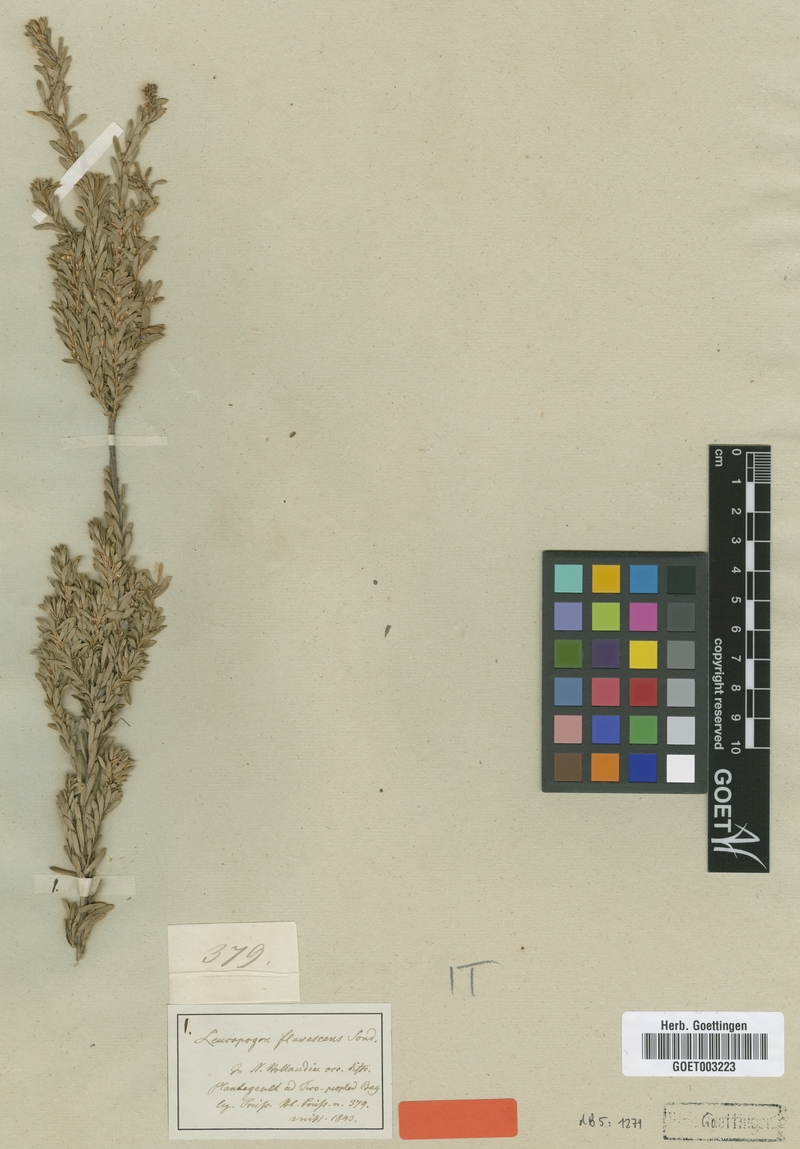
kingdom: Plantae
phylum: Tracheophyta
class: Magnoliopsida
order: Ericales
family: Ericaceae
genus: Styphelia
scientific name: Styphelia flavescens
